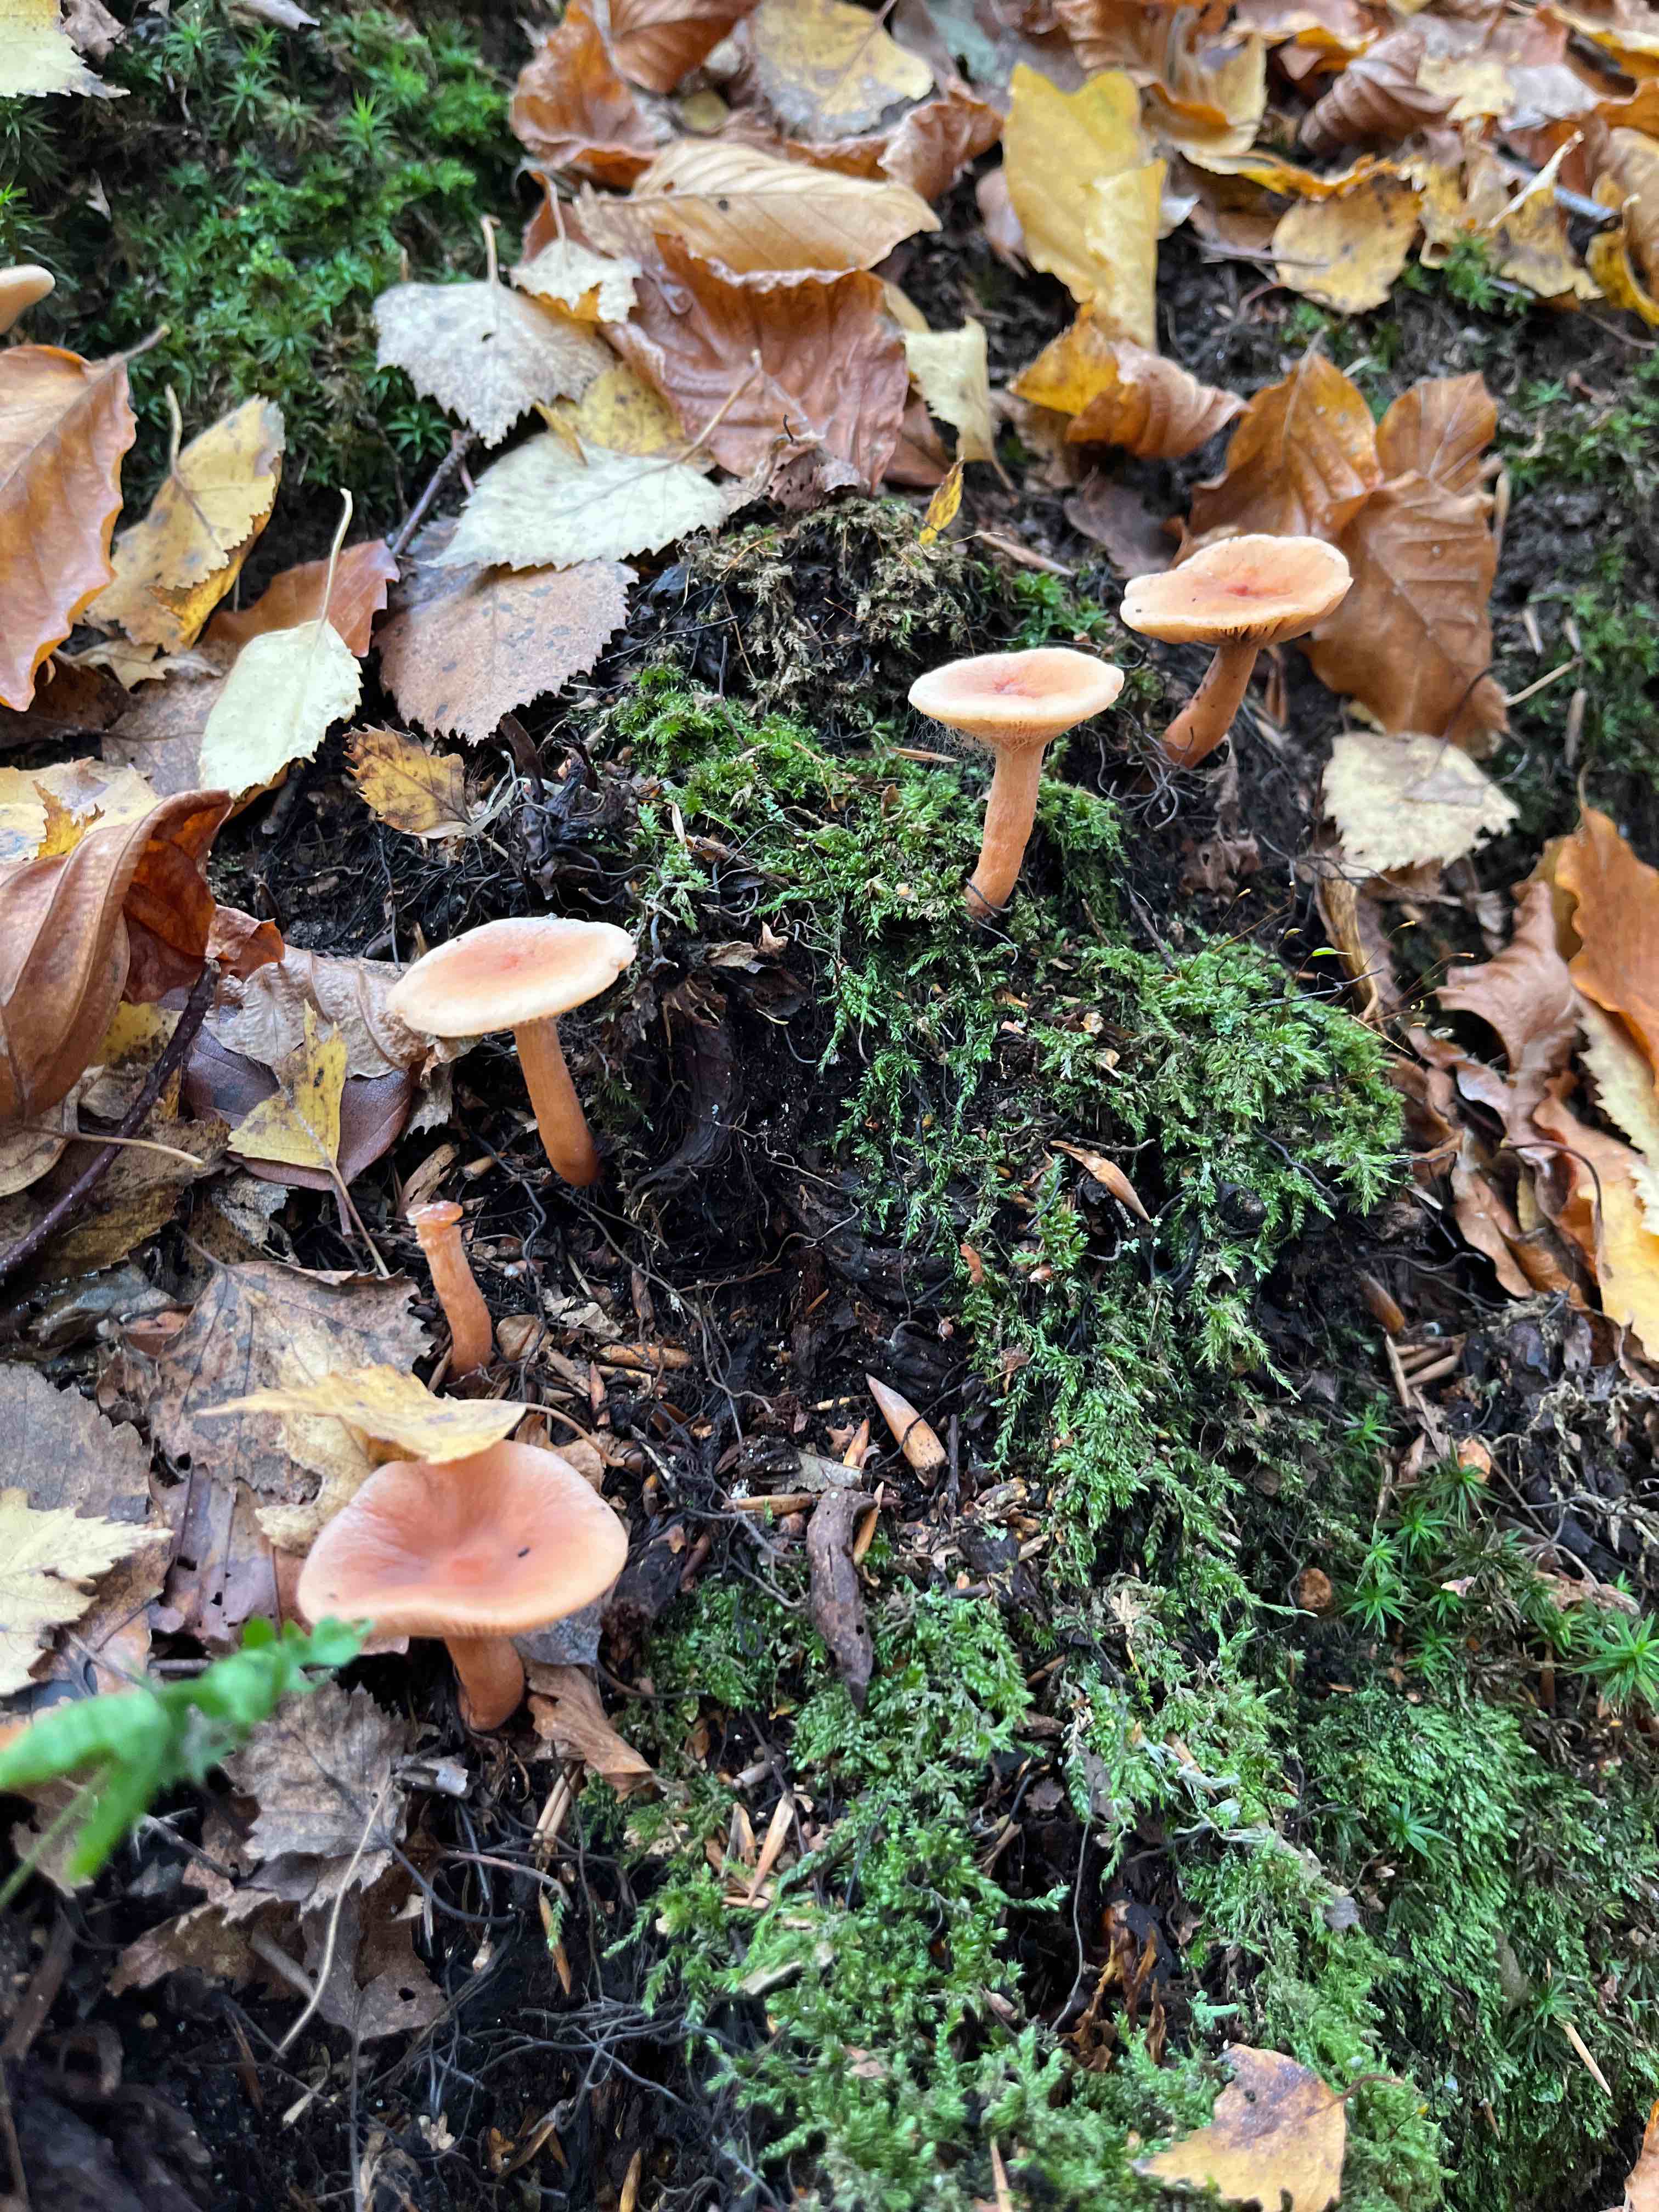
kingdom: Fungi
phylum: Basidiomycota
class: Agaricomycetes
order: Russulales
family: Russulaceae
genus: Lactarius
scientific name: Lactarius
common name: mælkehat
